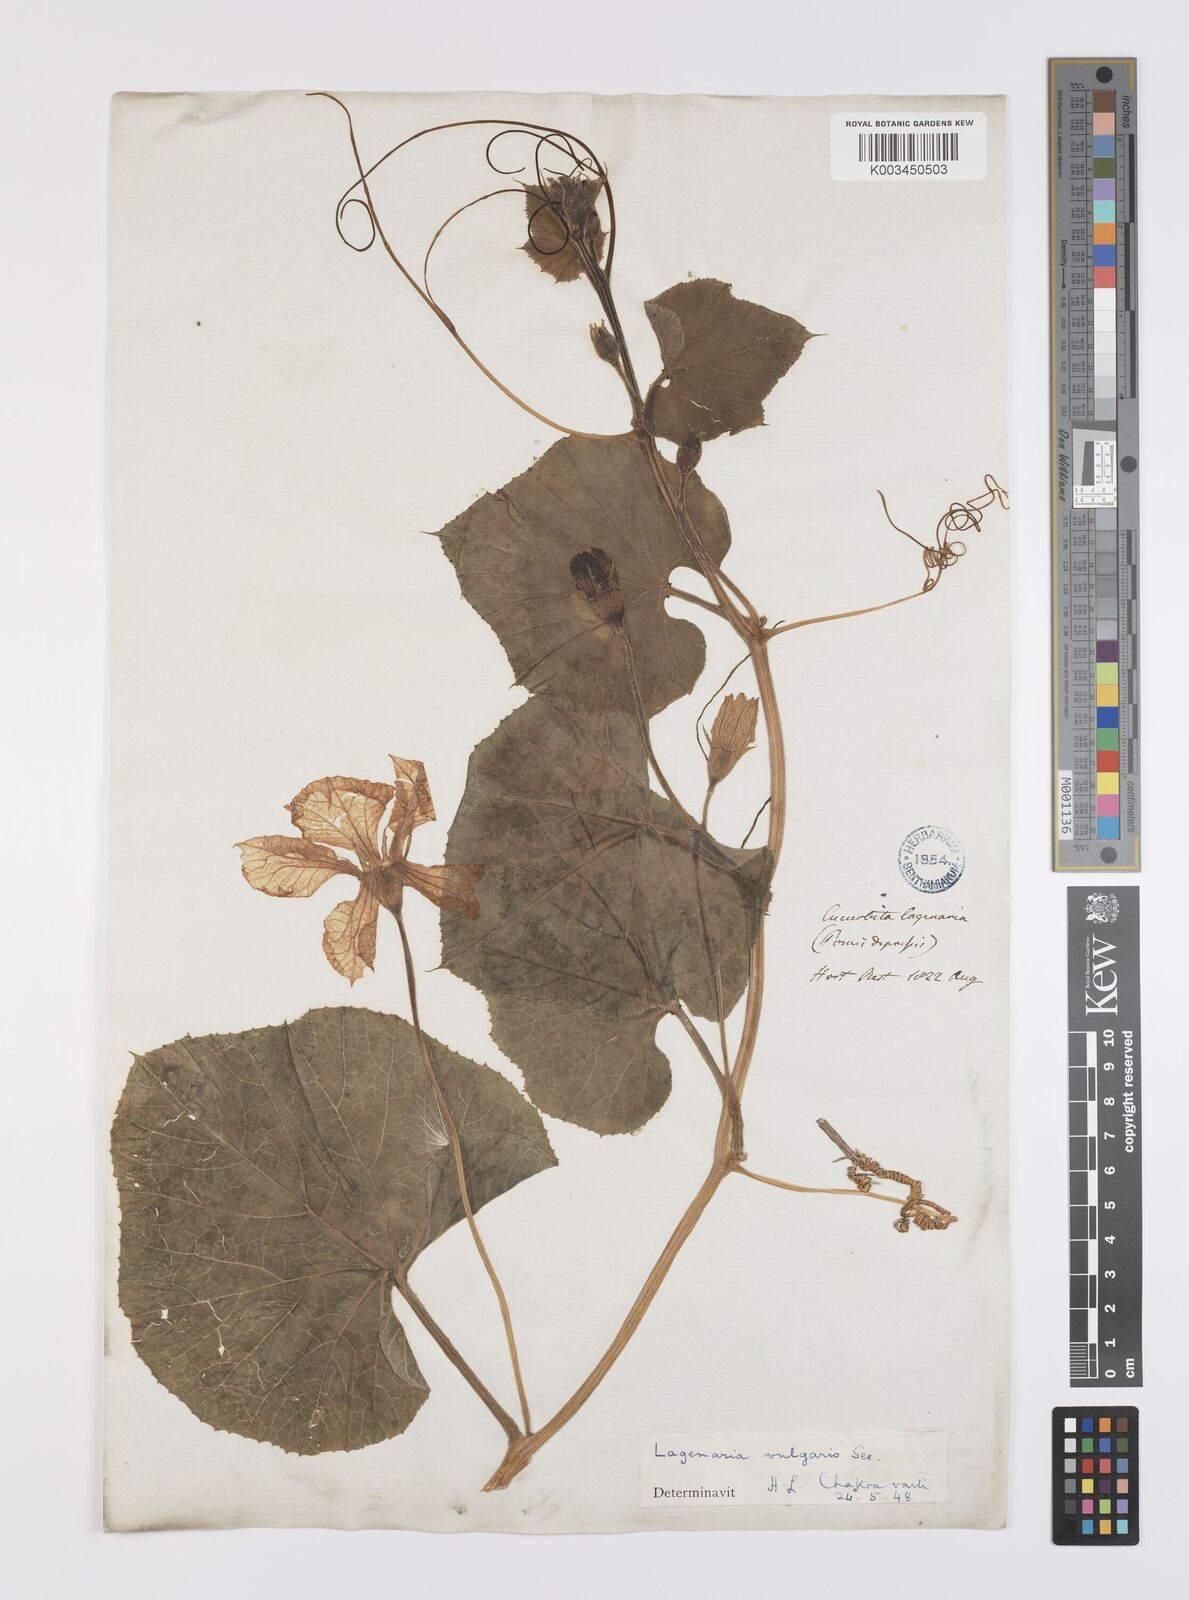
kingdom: Plantae
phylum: Tracheophyta
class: Magnoliopsida
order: Cucurbitales
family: Cucurbitaceae
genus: Lagenaria
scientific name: Lagenaria siceraria
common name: Bottle gourd
